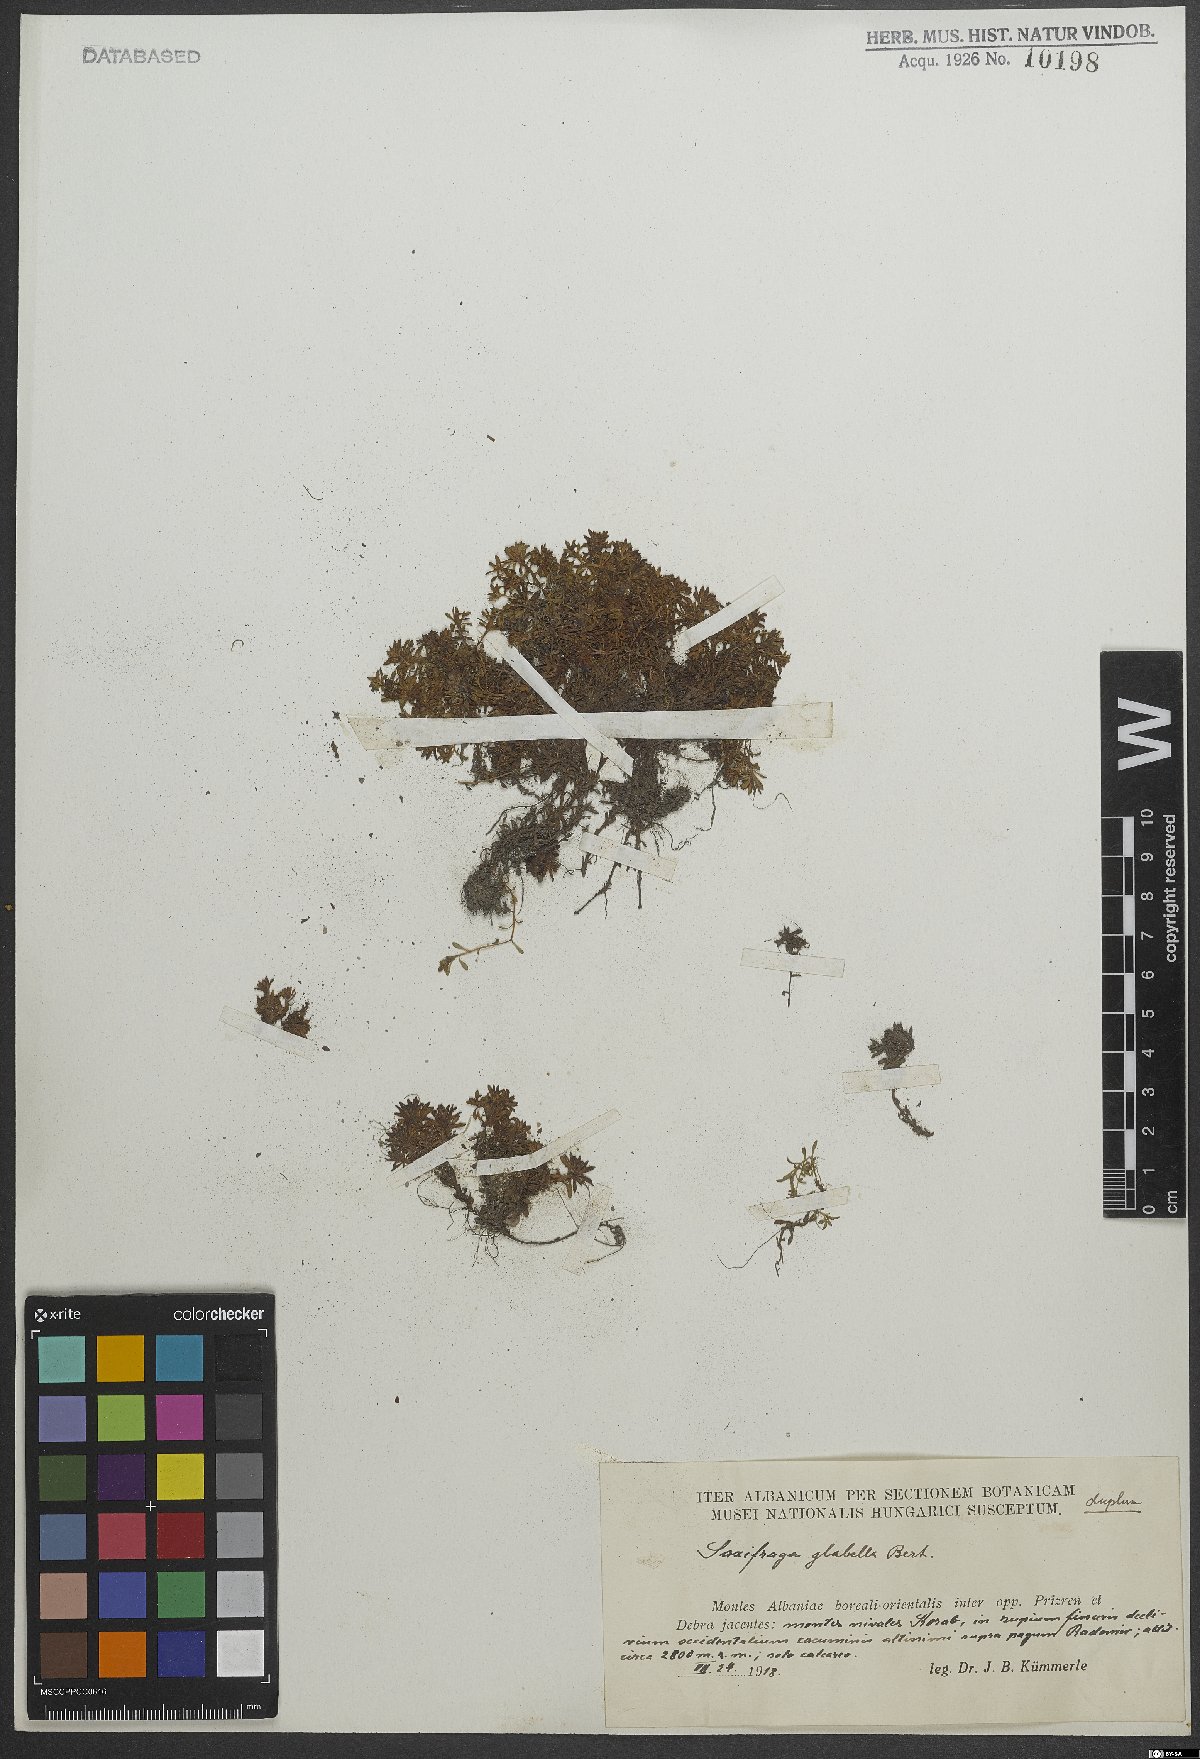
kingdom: Plantae
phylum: Tracheophyta
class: Magnoliopsida
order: Saxifragales
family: Saxifragaceae
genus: Saxifraga
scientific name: Saxifraga glabella
